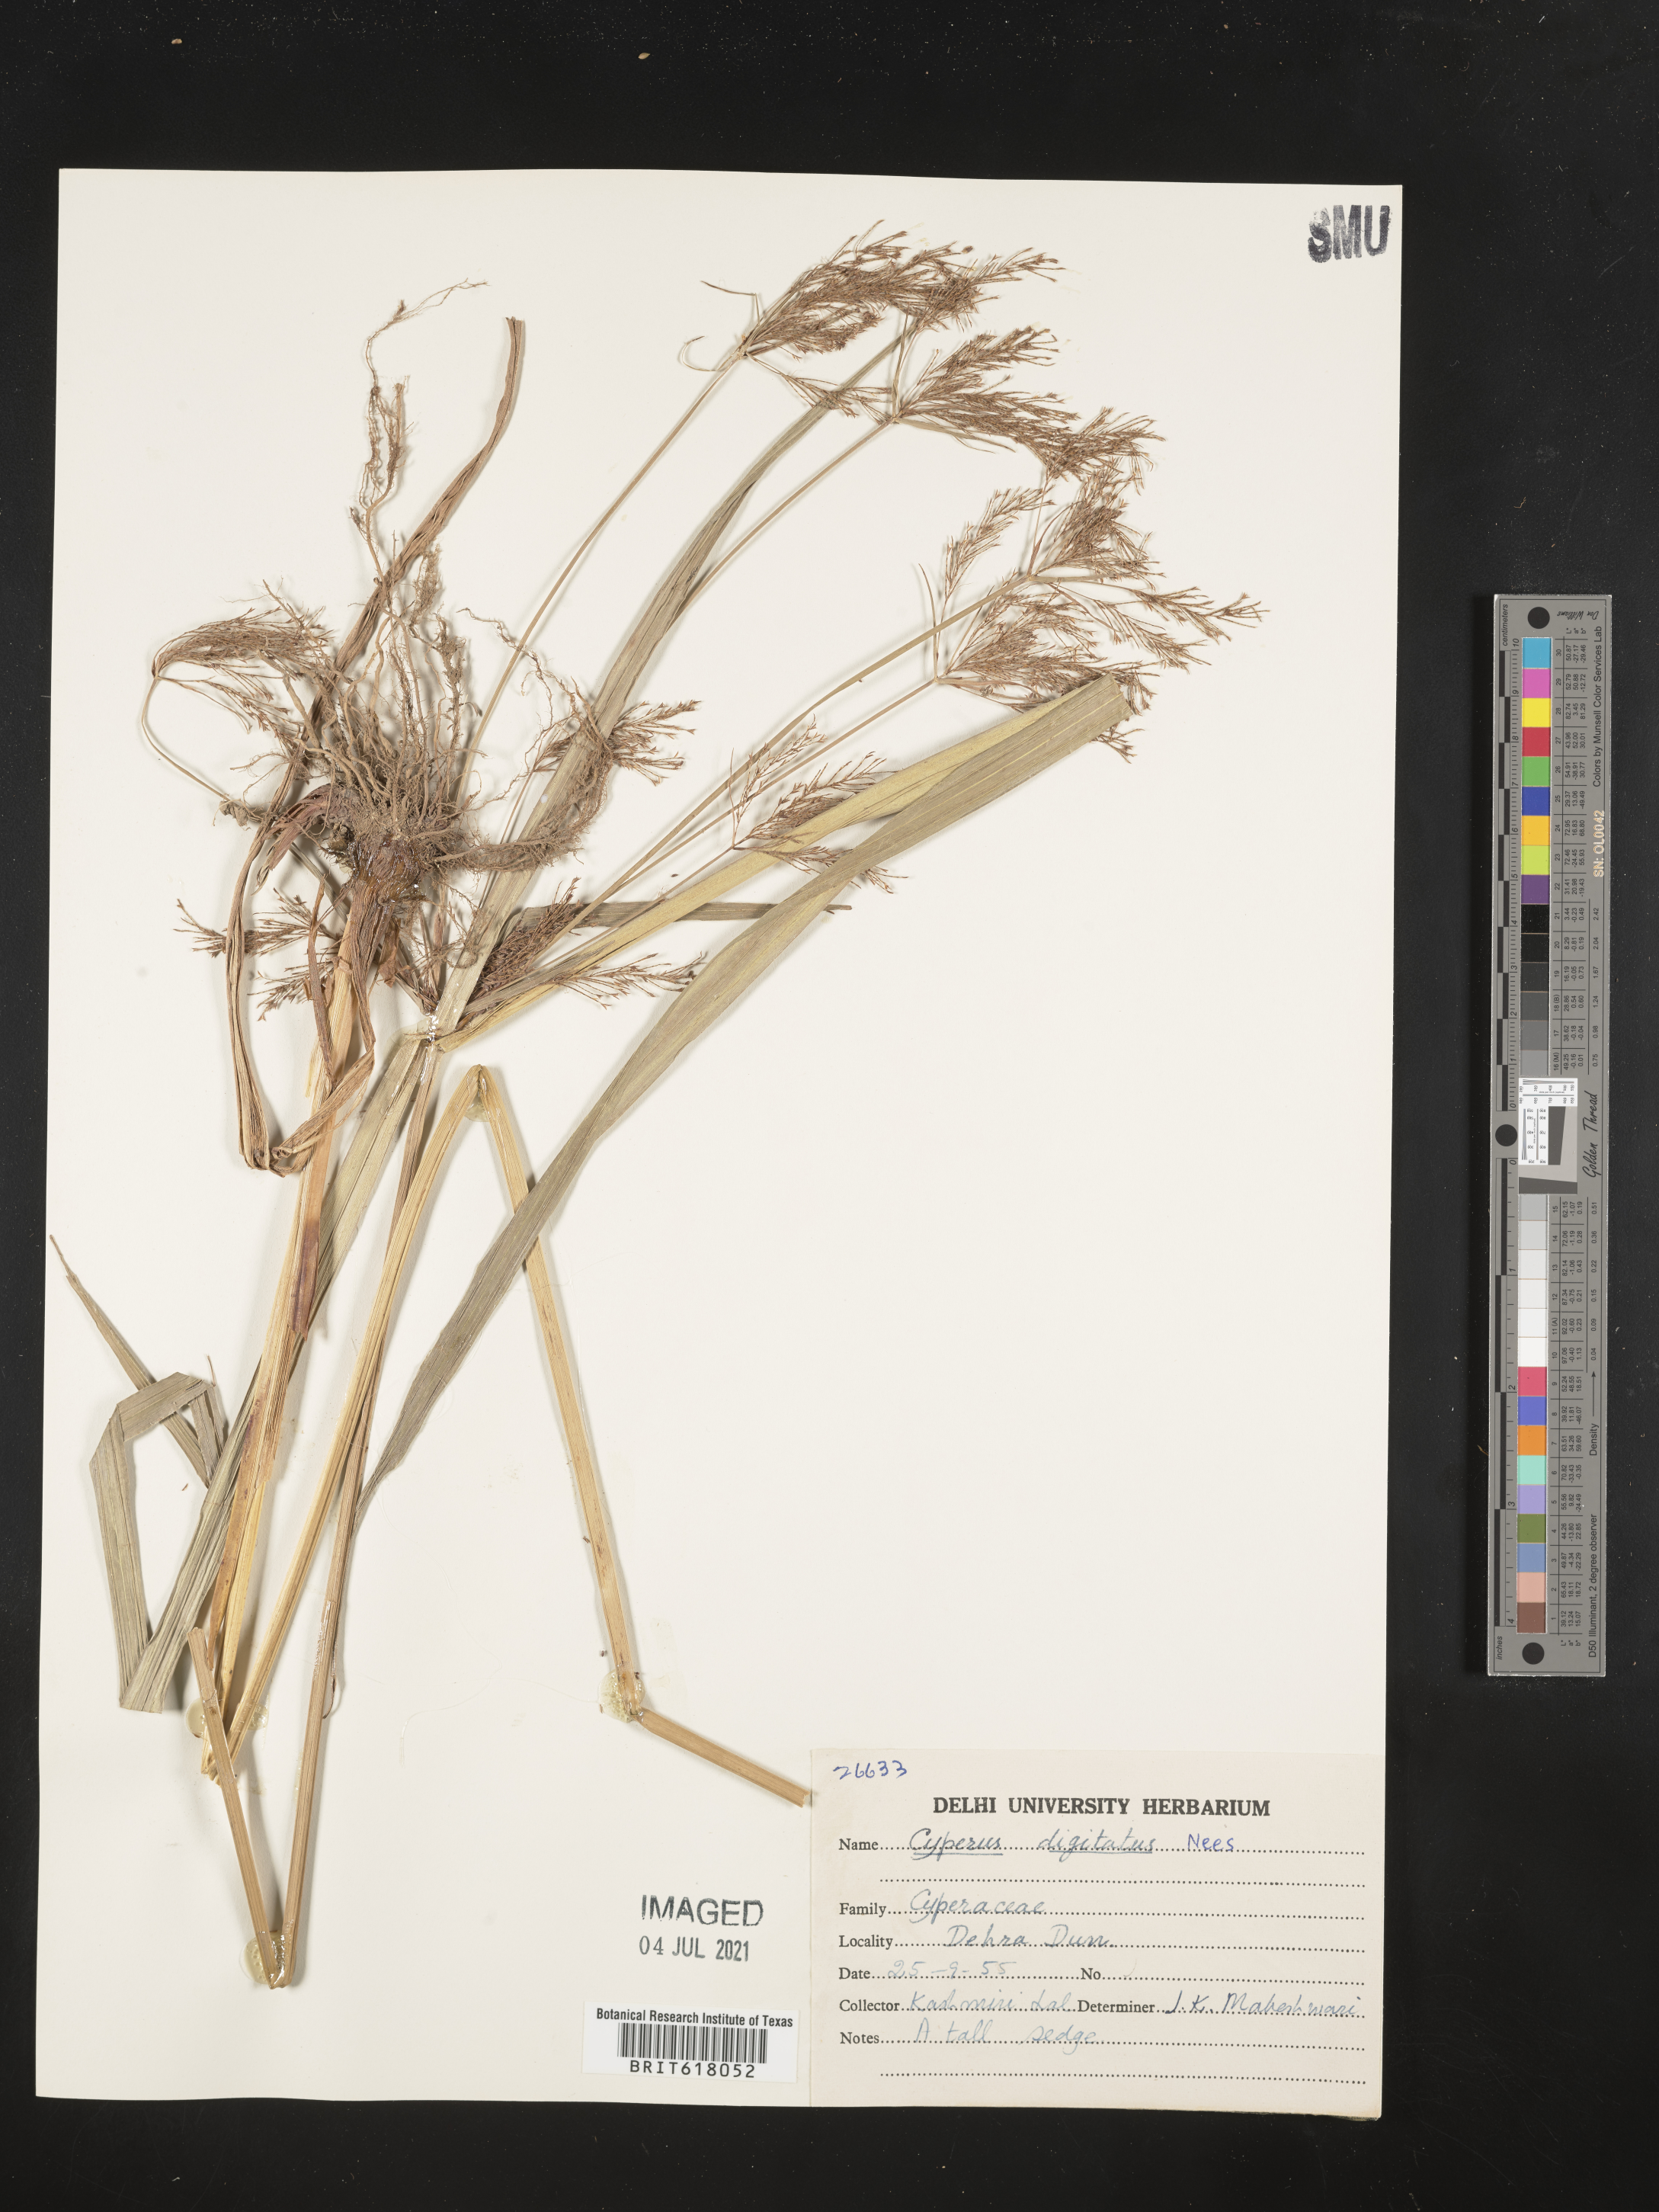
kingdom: Plantae
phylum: Tracheophyta
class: Liliopsida
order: Poales
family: Cyperaceae
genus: Cyperus
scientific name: Cyperus digitatus
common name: Finger flatsedge
